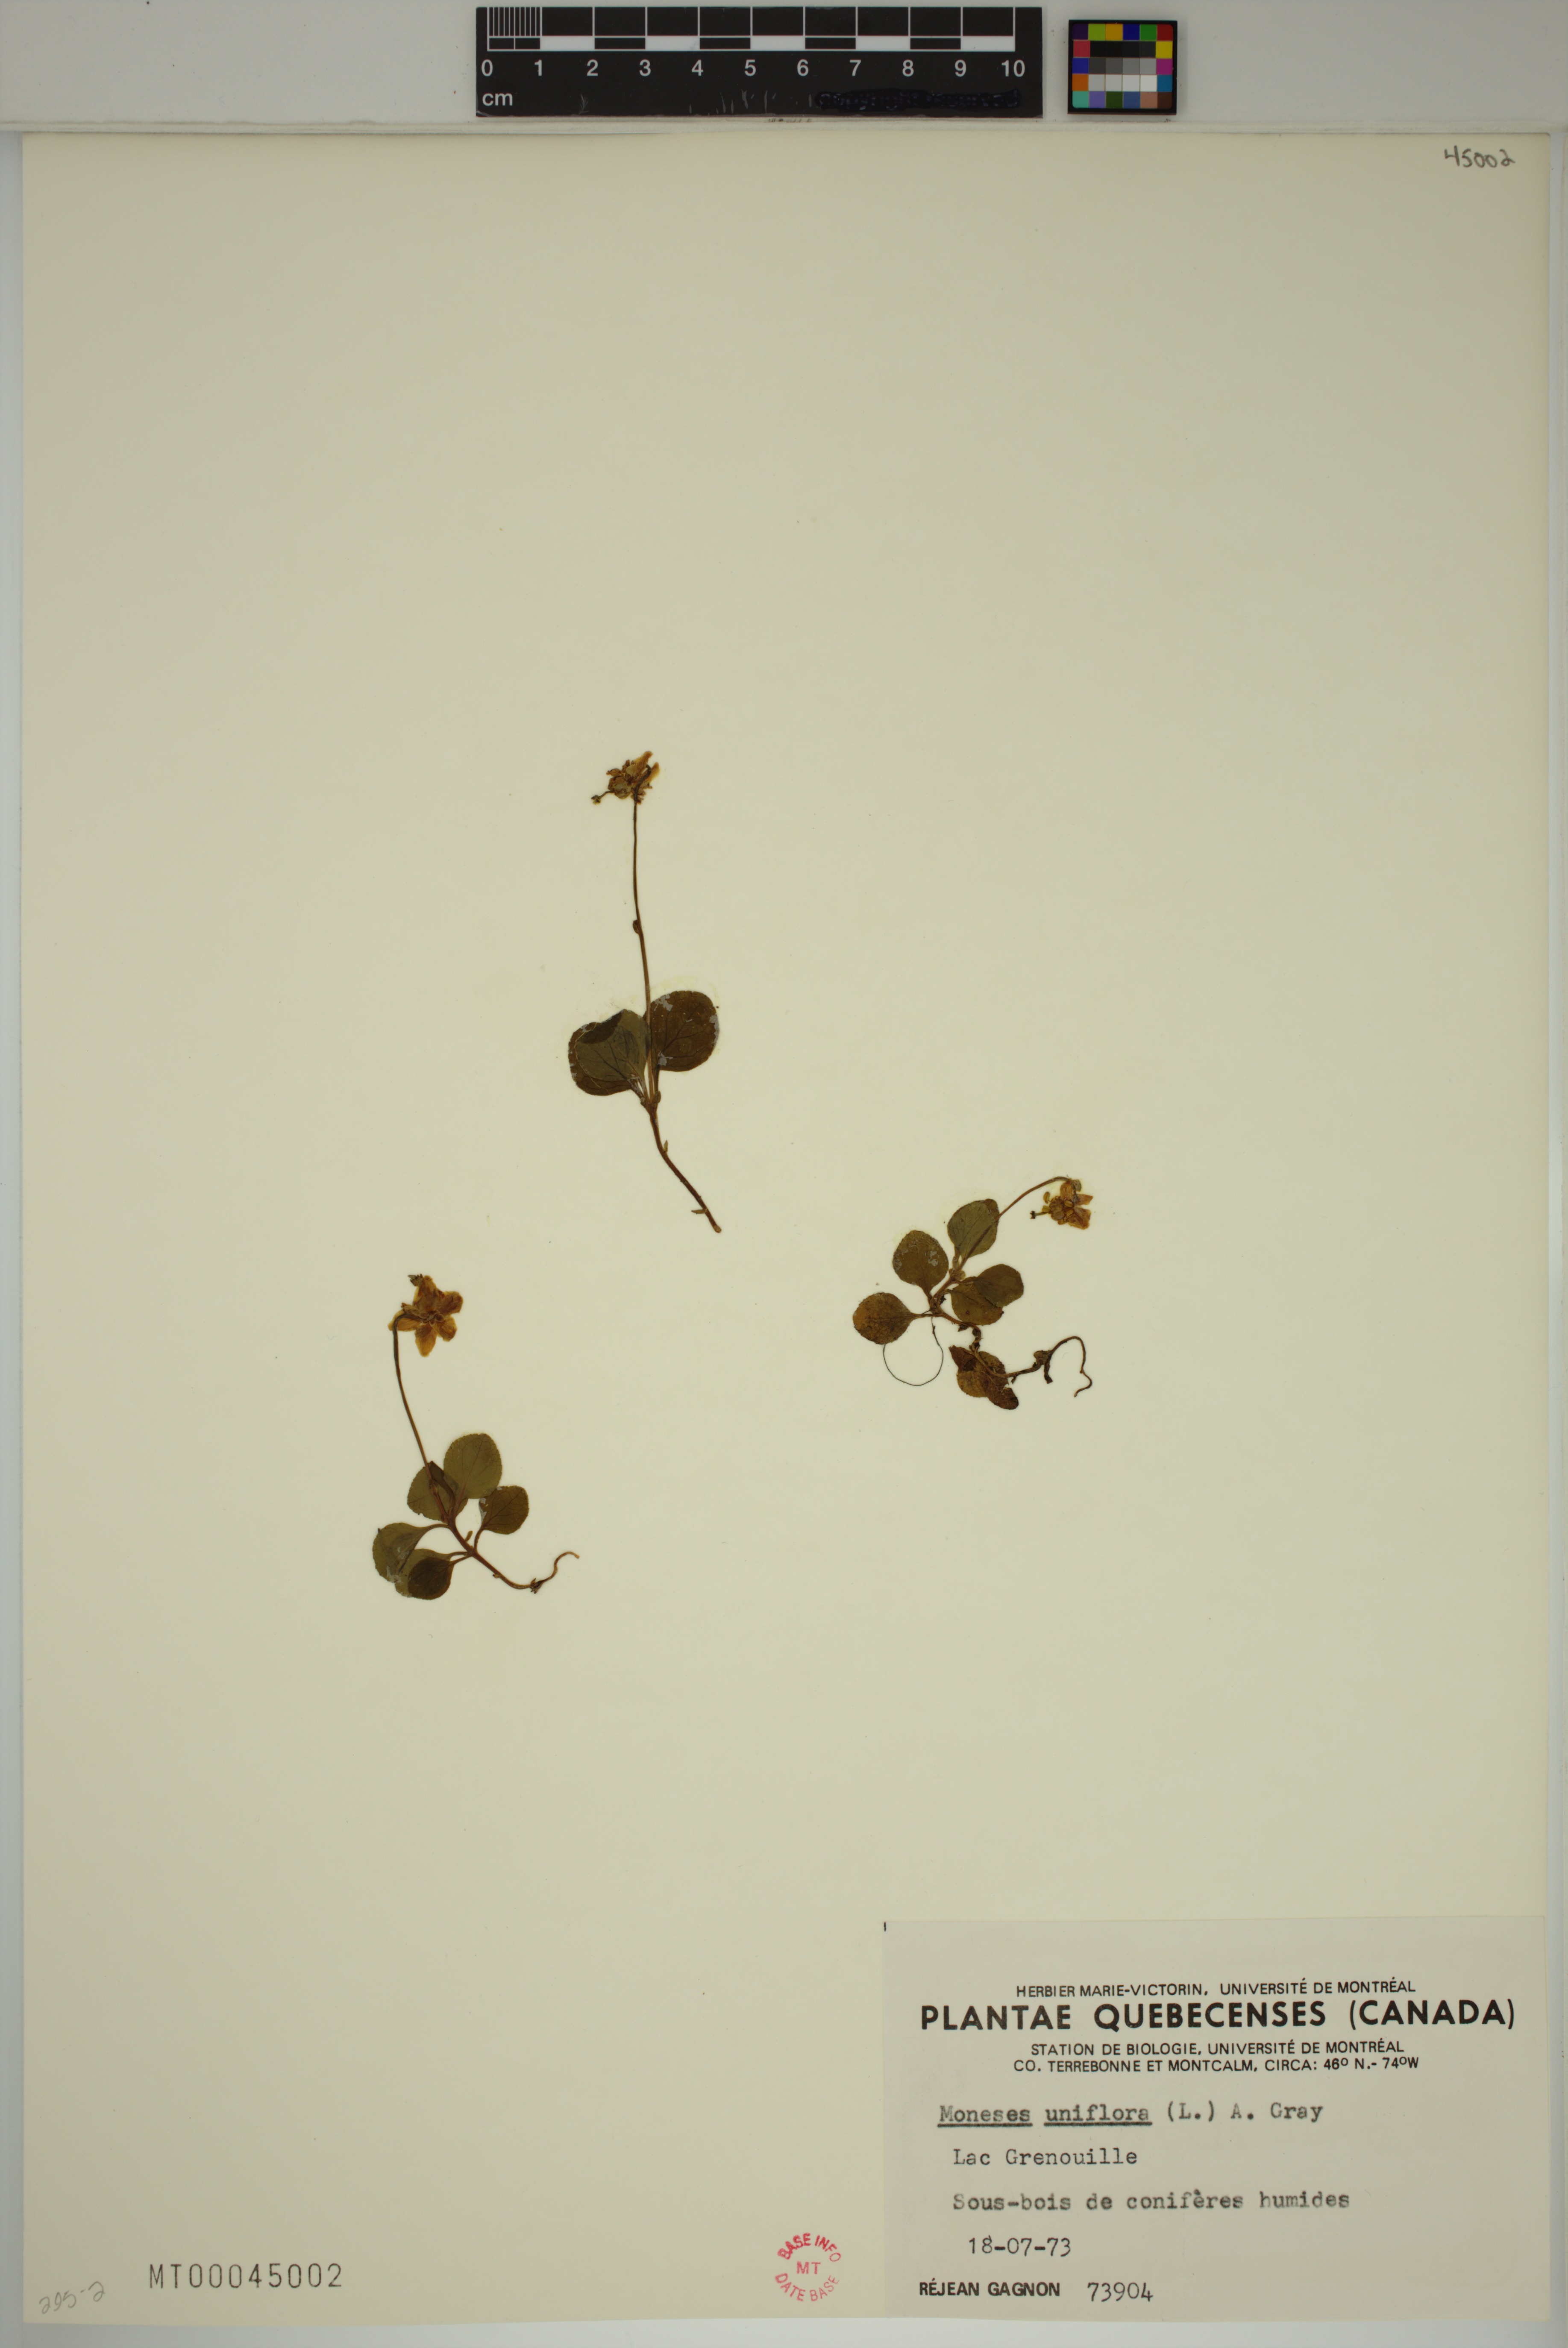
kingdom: Plantae
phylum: Tracheophyta
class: Magnoliopsida
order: Ericales
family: Ericaceae
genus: Moneses
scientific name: Moneses uniflora
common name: One-flowered wintergreen
